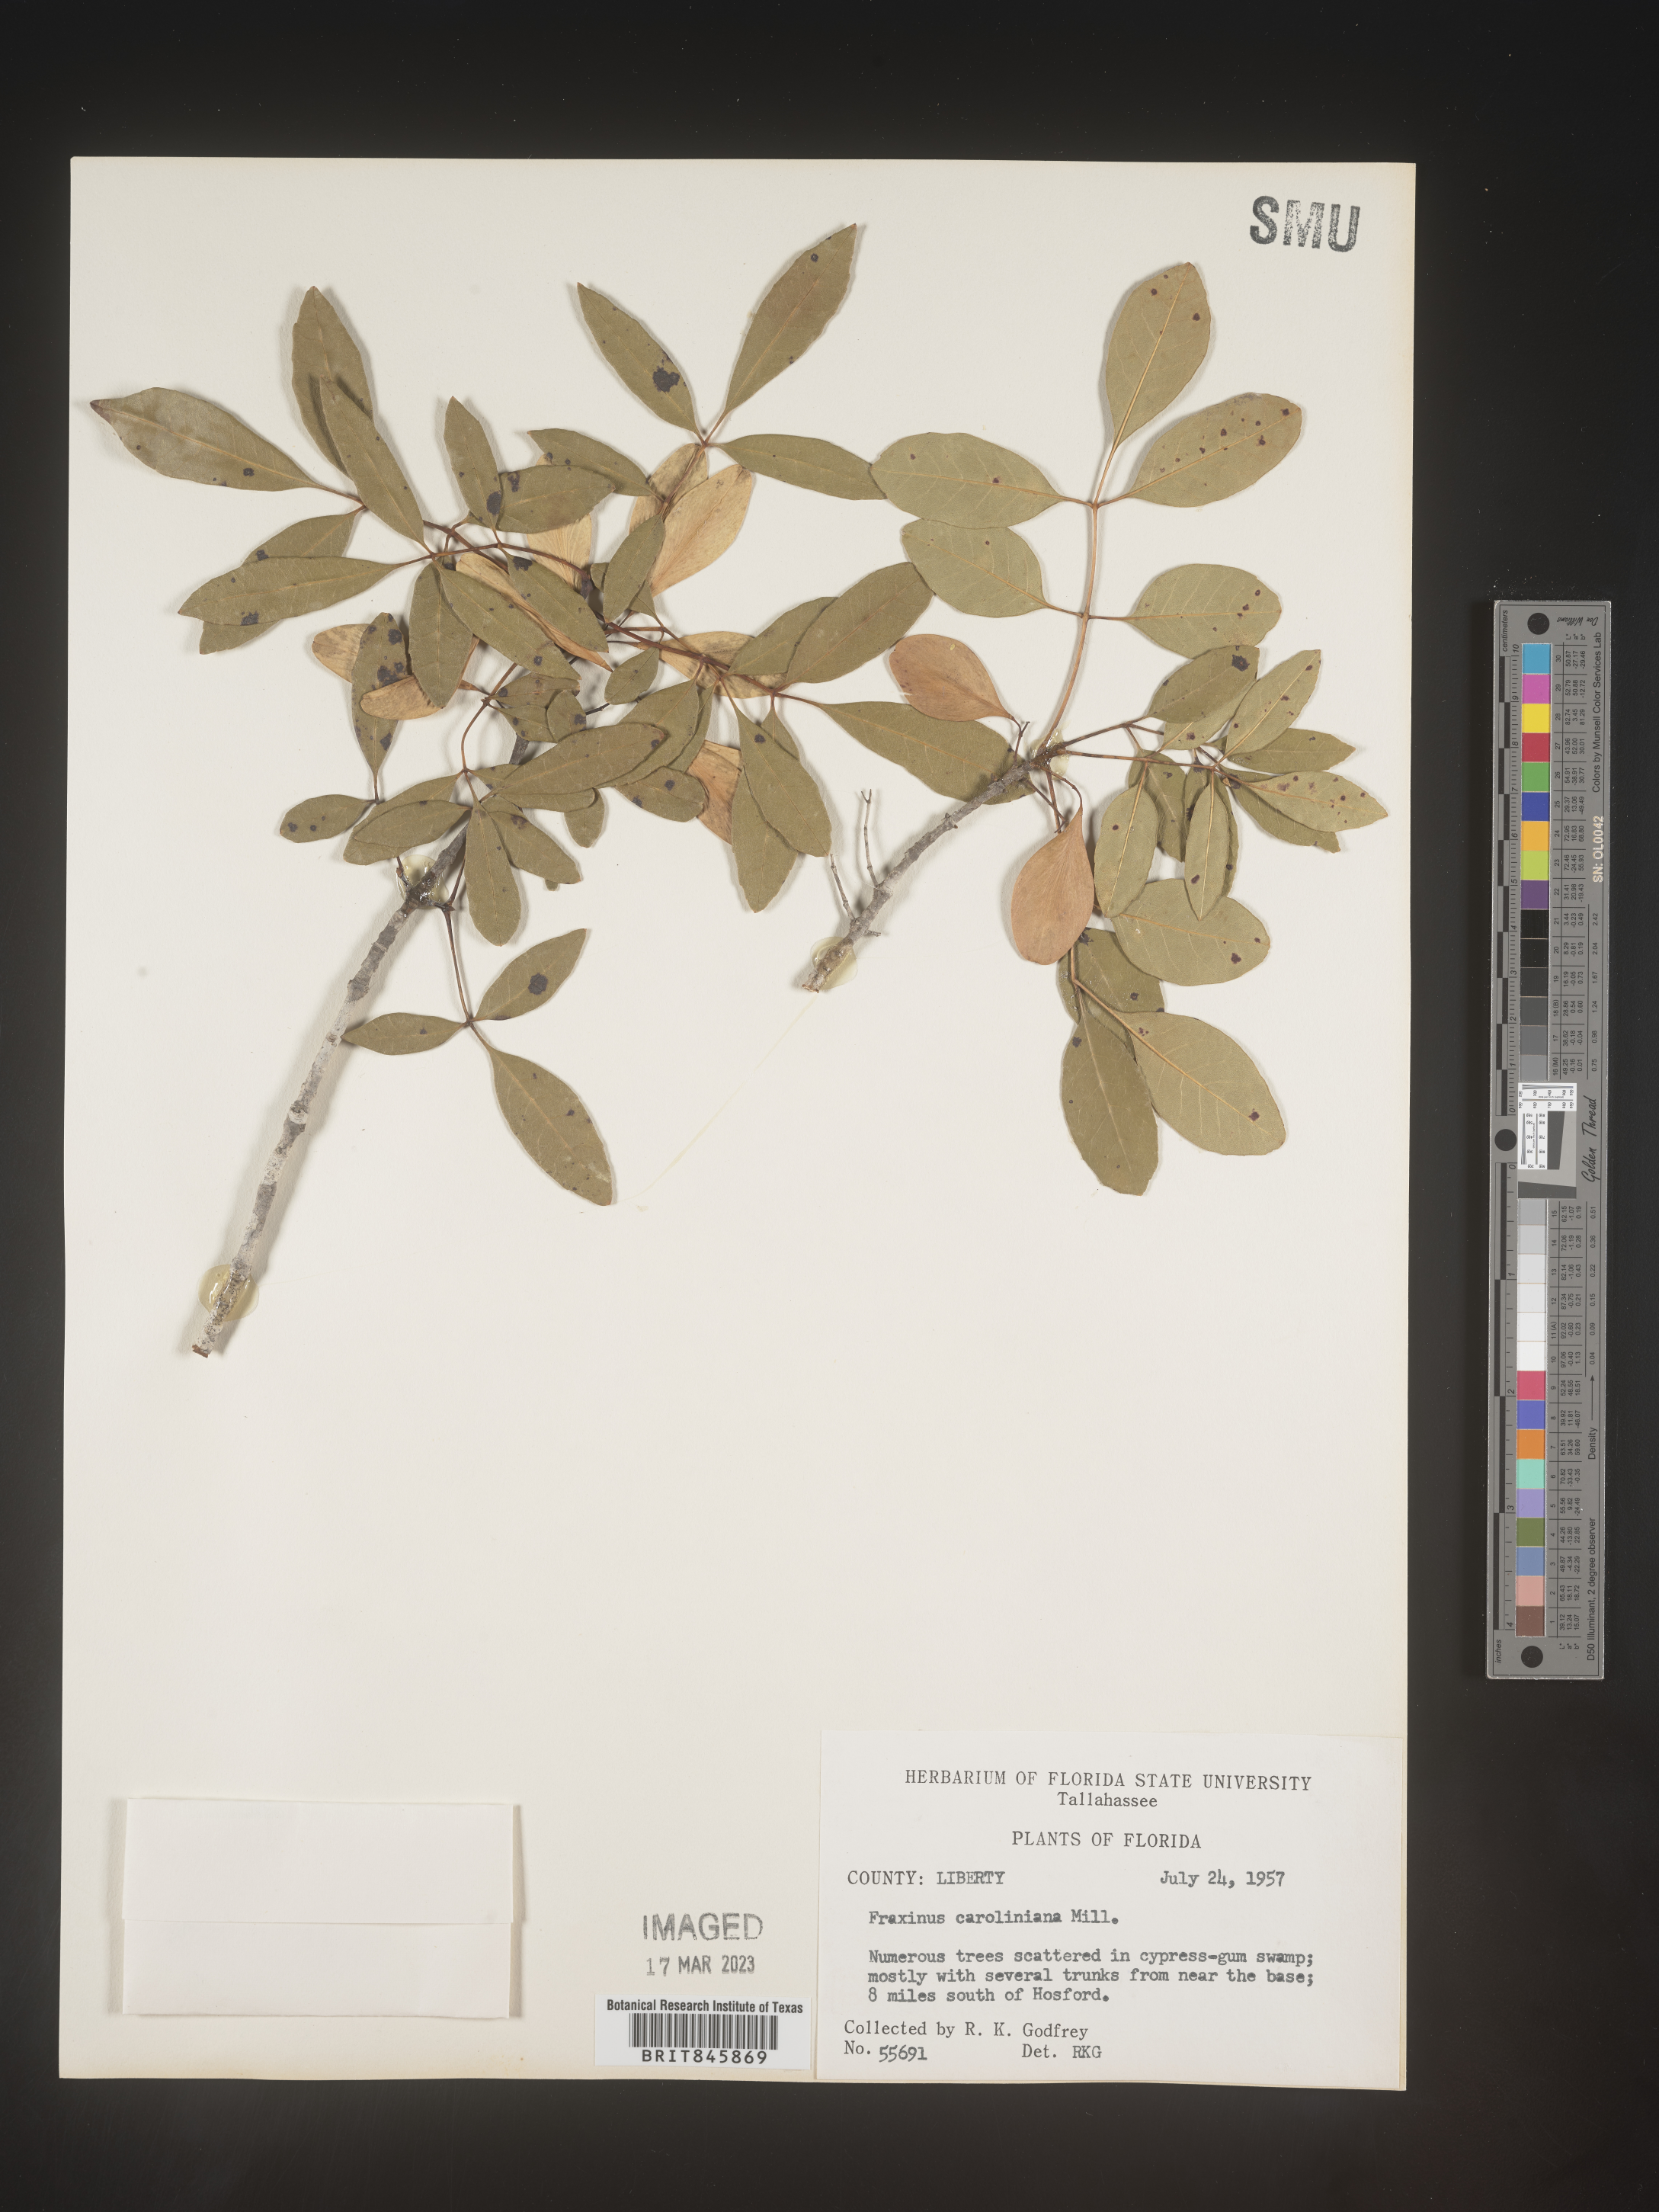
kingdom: Plantae
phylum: Tracheophyta
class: Magnoliopsida
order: Lamiales
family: Oleaceae
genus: Fraxinus
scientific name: Fraxinus caroliniana
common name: Carolina ash
